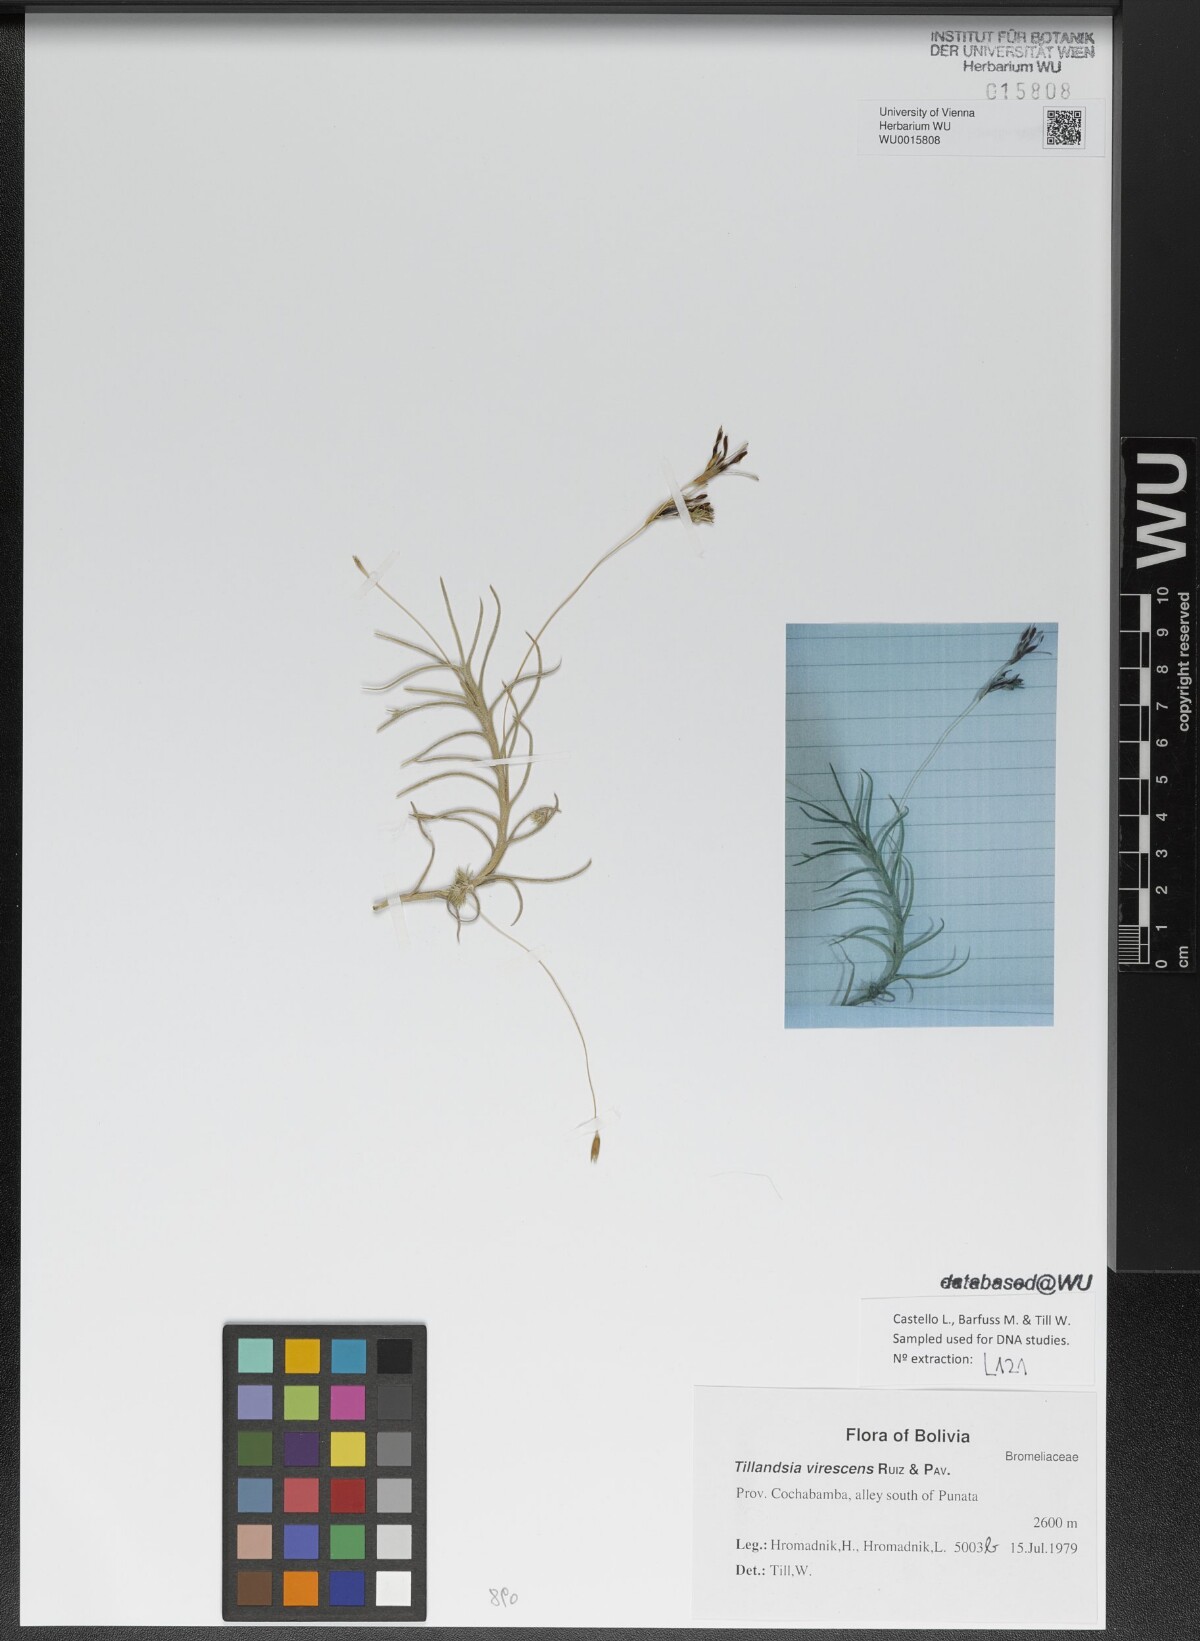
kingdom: Plantae
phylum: Tracheophyta
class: Liliopsida
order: Poales
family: Bromeliaceae
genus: Tillandsia
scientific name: Tillandsia virescens
